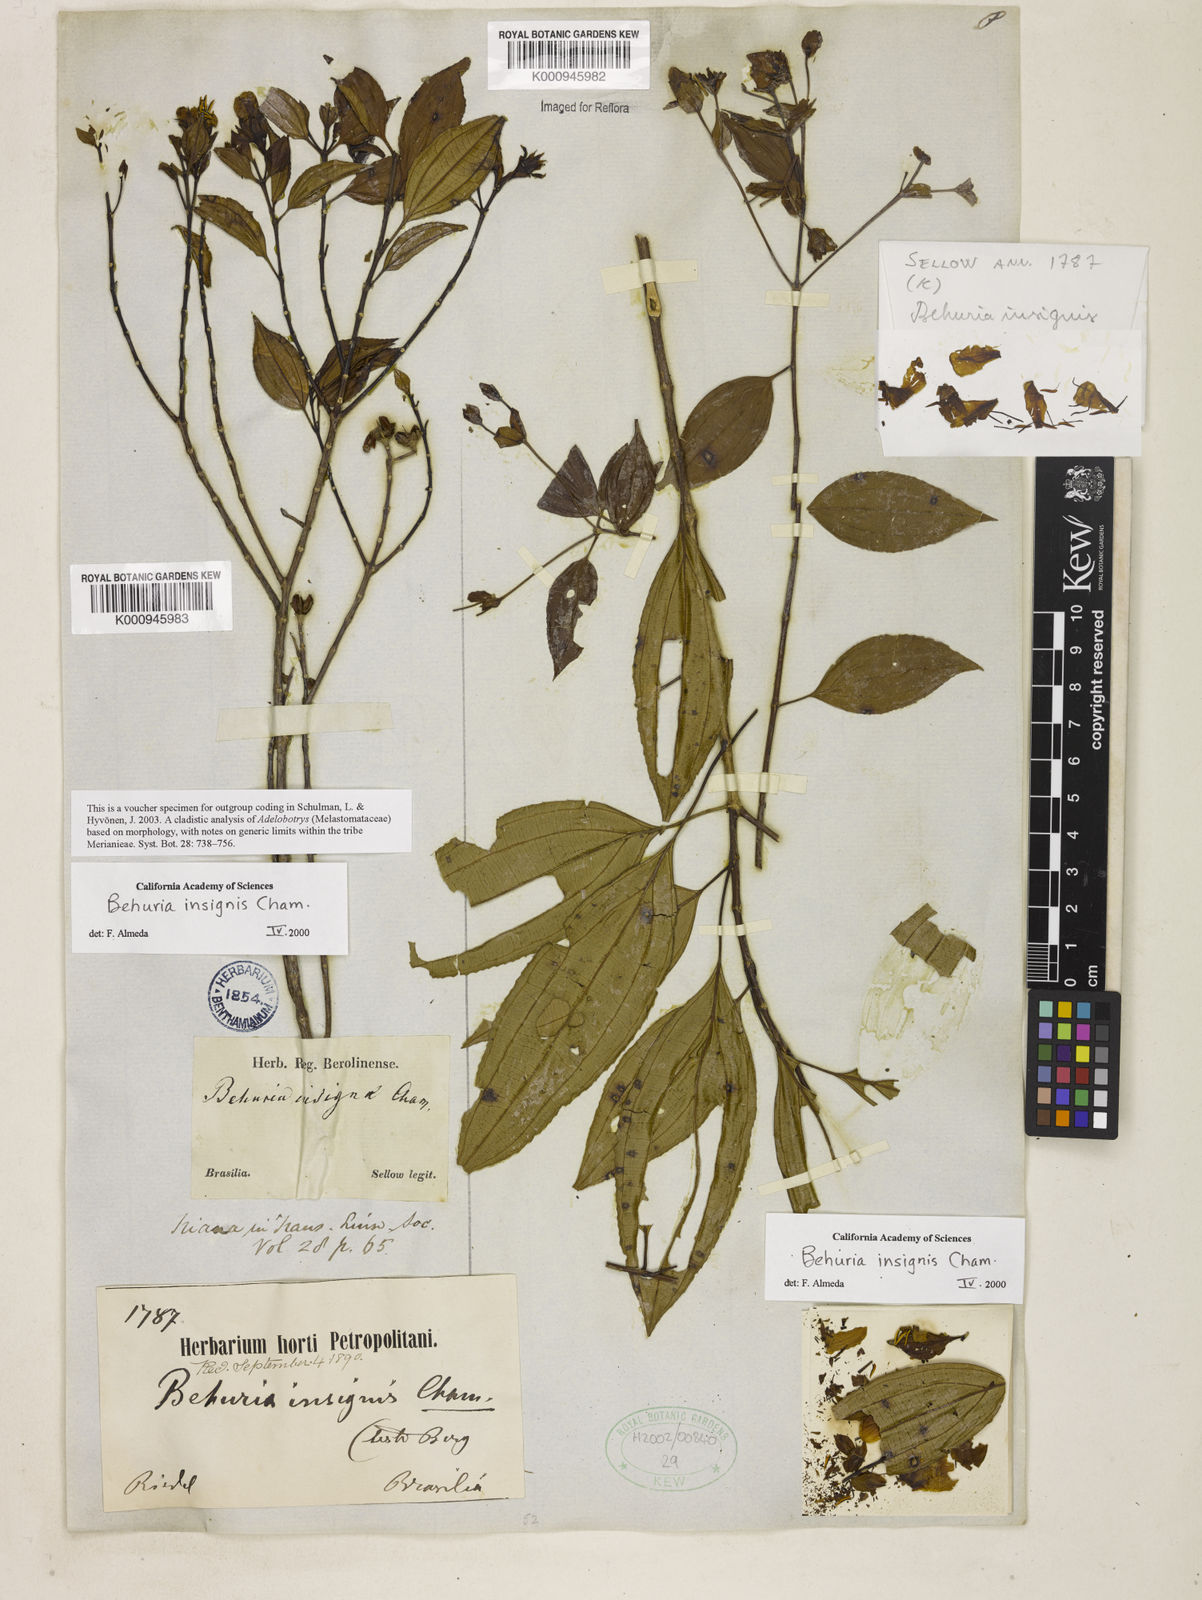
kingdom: Plantae
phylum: Tracheophyta
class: Magnoliopsida
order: Myrtales
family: Melastomataceae
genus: Huberia
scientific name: Huberia insignis
